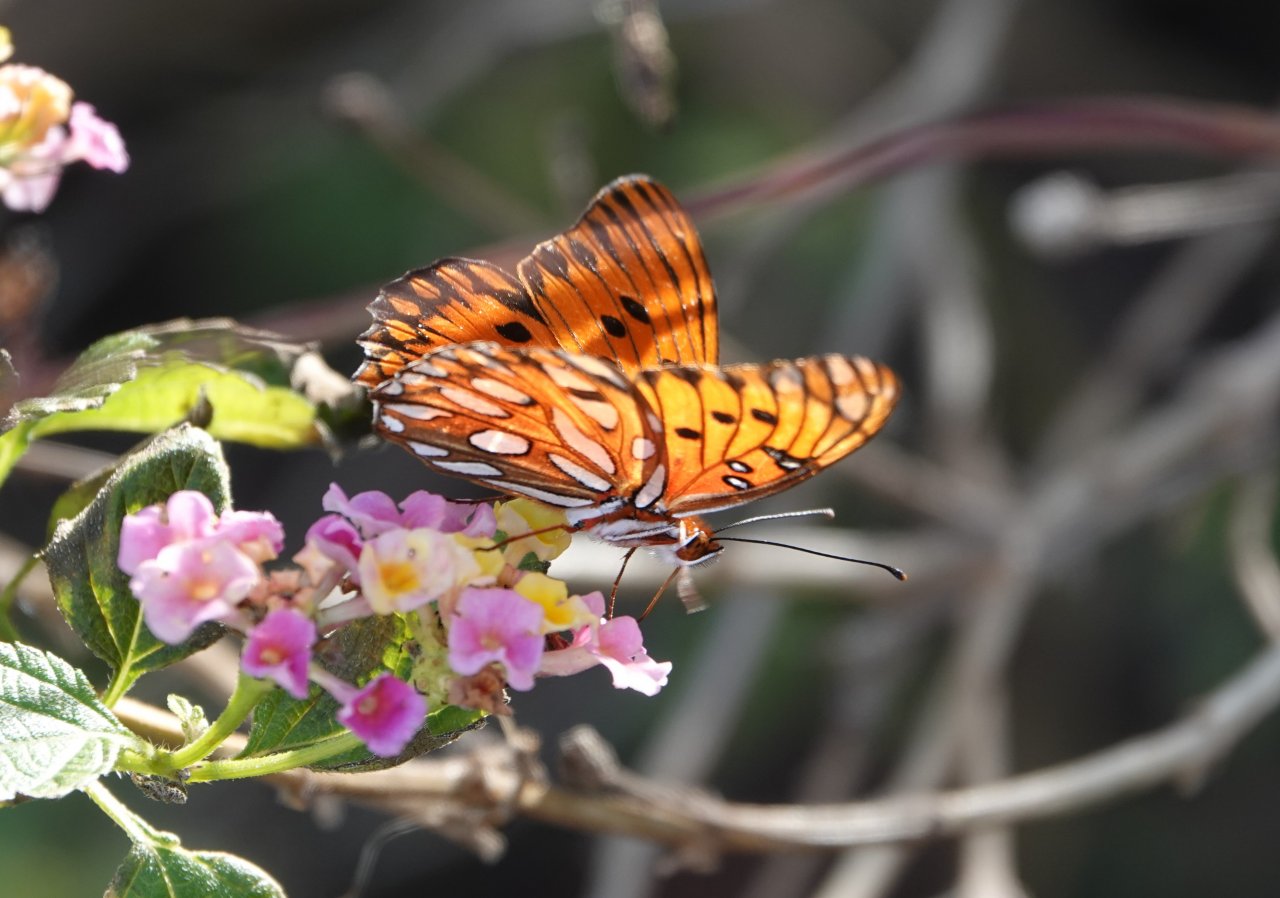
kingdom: Animalia
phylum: Arthropoda
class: Insecta
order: Lepidoptera
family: Nymphalidae
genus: Dione
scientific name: Dione vanillae
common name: Gulf Fritillary
